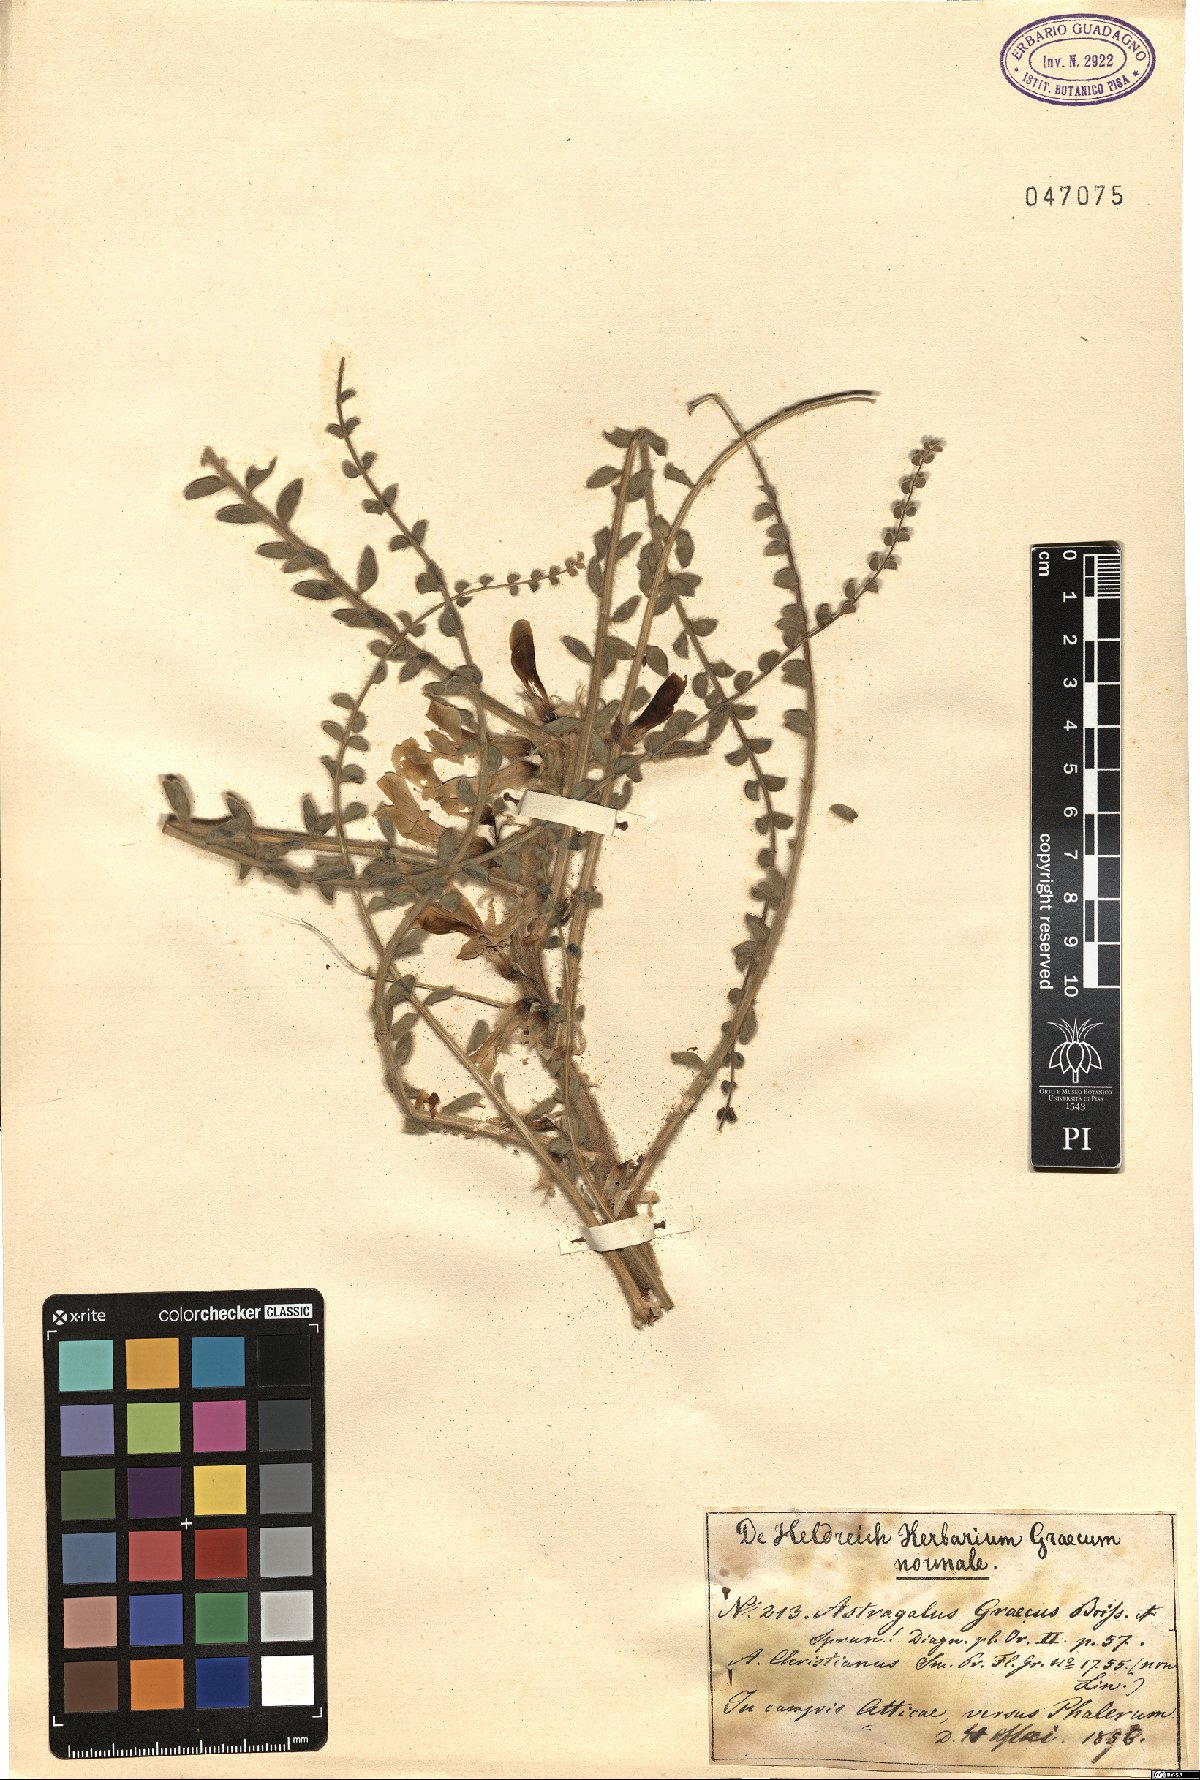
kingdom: Plantae
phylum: Tracheophyta
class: Magnoliopsida
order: Fabales
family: Fabaceae
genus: Astragalus
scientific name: Astragalus graecus
